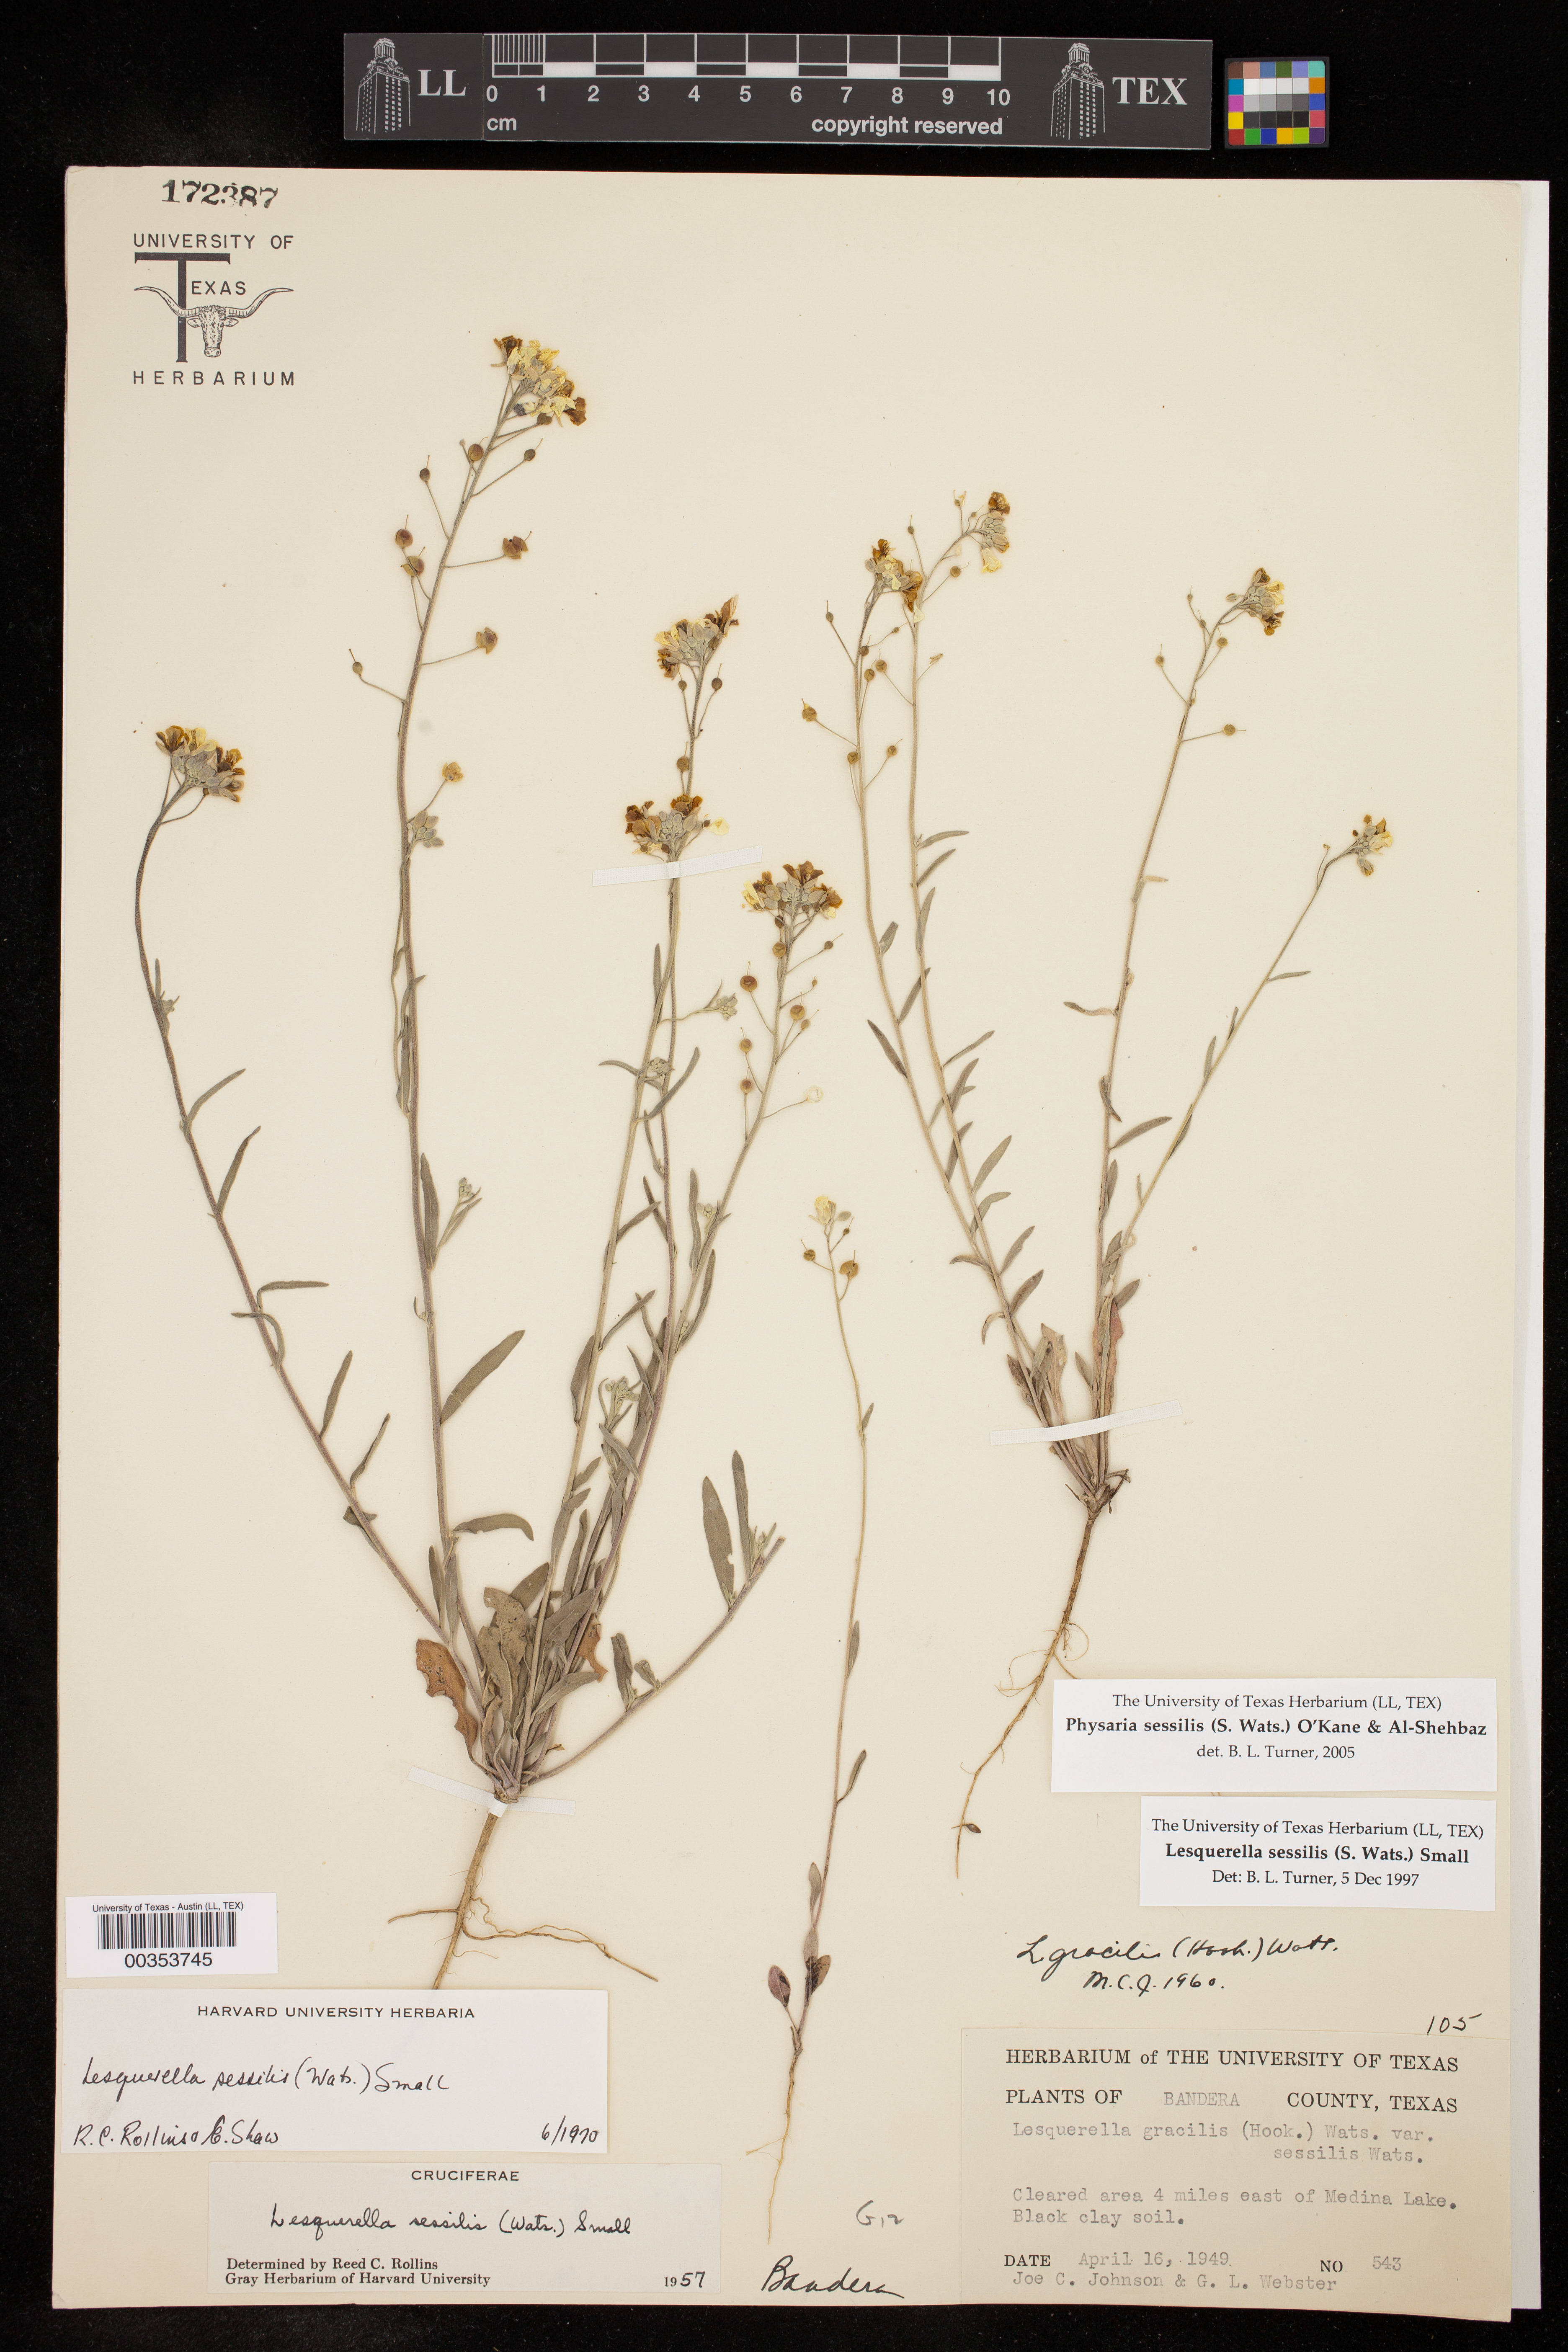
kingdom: Plantae
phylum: Tracheophyta
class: Magnoliopsida
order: Brassicales
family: Brassicaceae
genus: Physaria
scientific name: Physaria sessilis
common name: Sessile bladderpod
